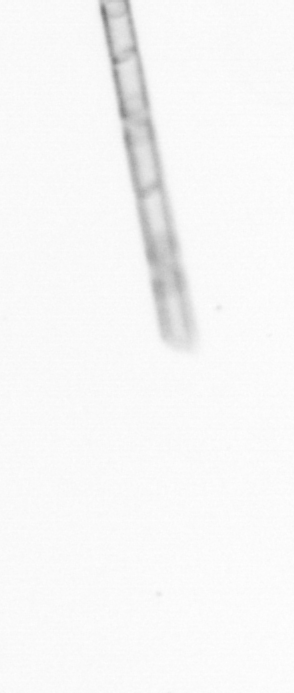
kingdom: Chromista
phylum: Ochrophyta
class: Bacillariophyceae
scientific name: Bacillariophyceae
